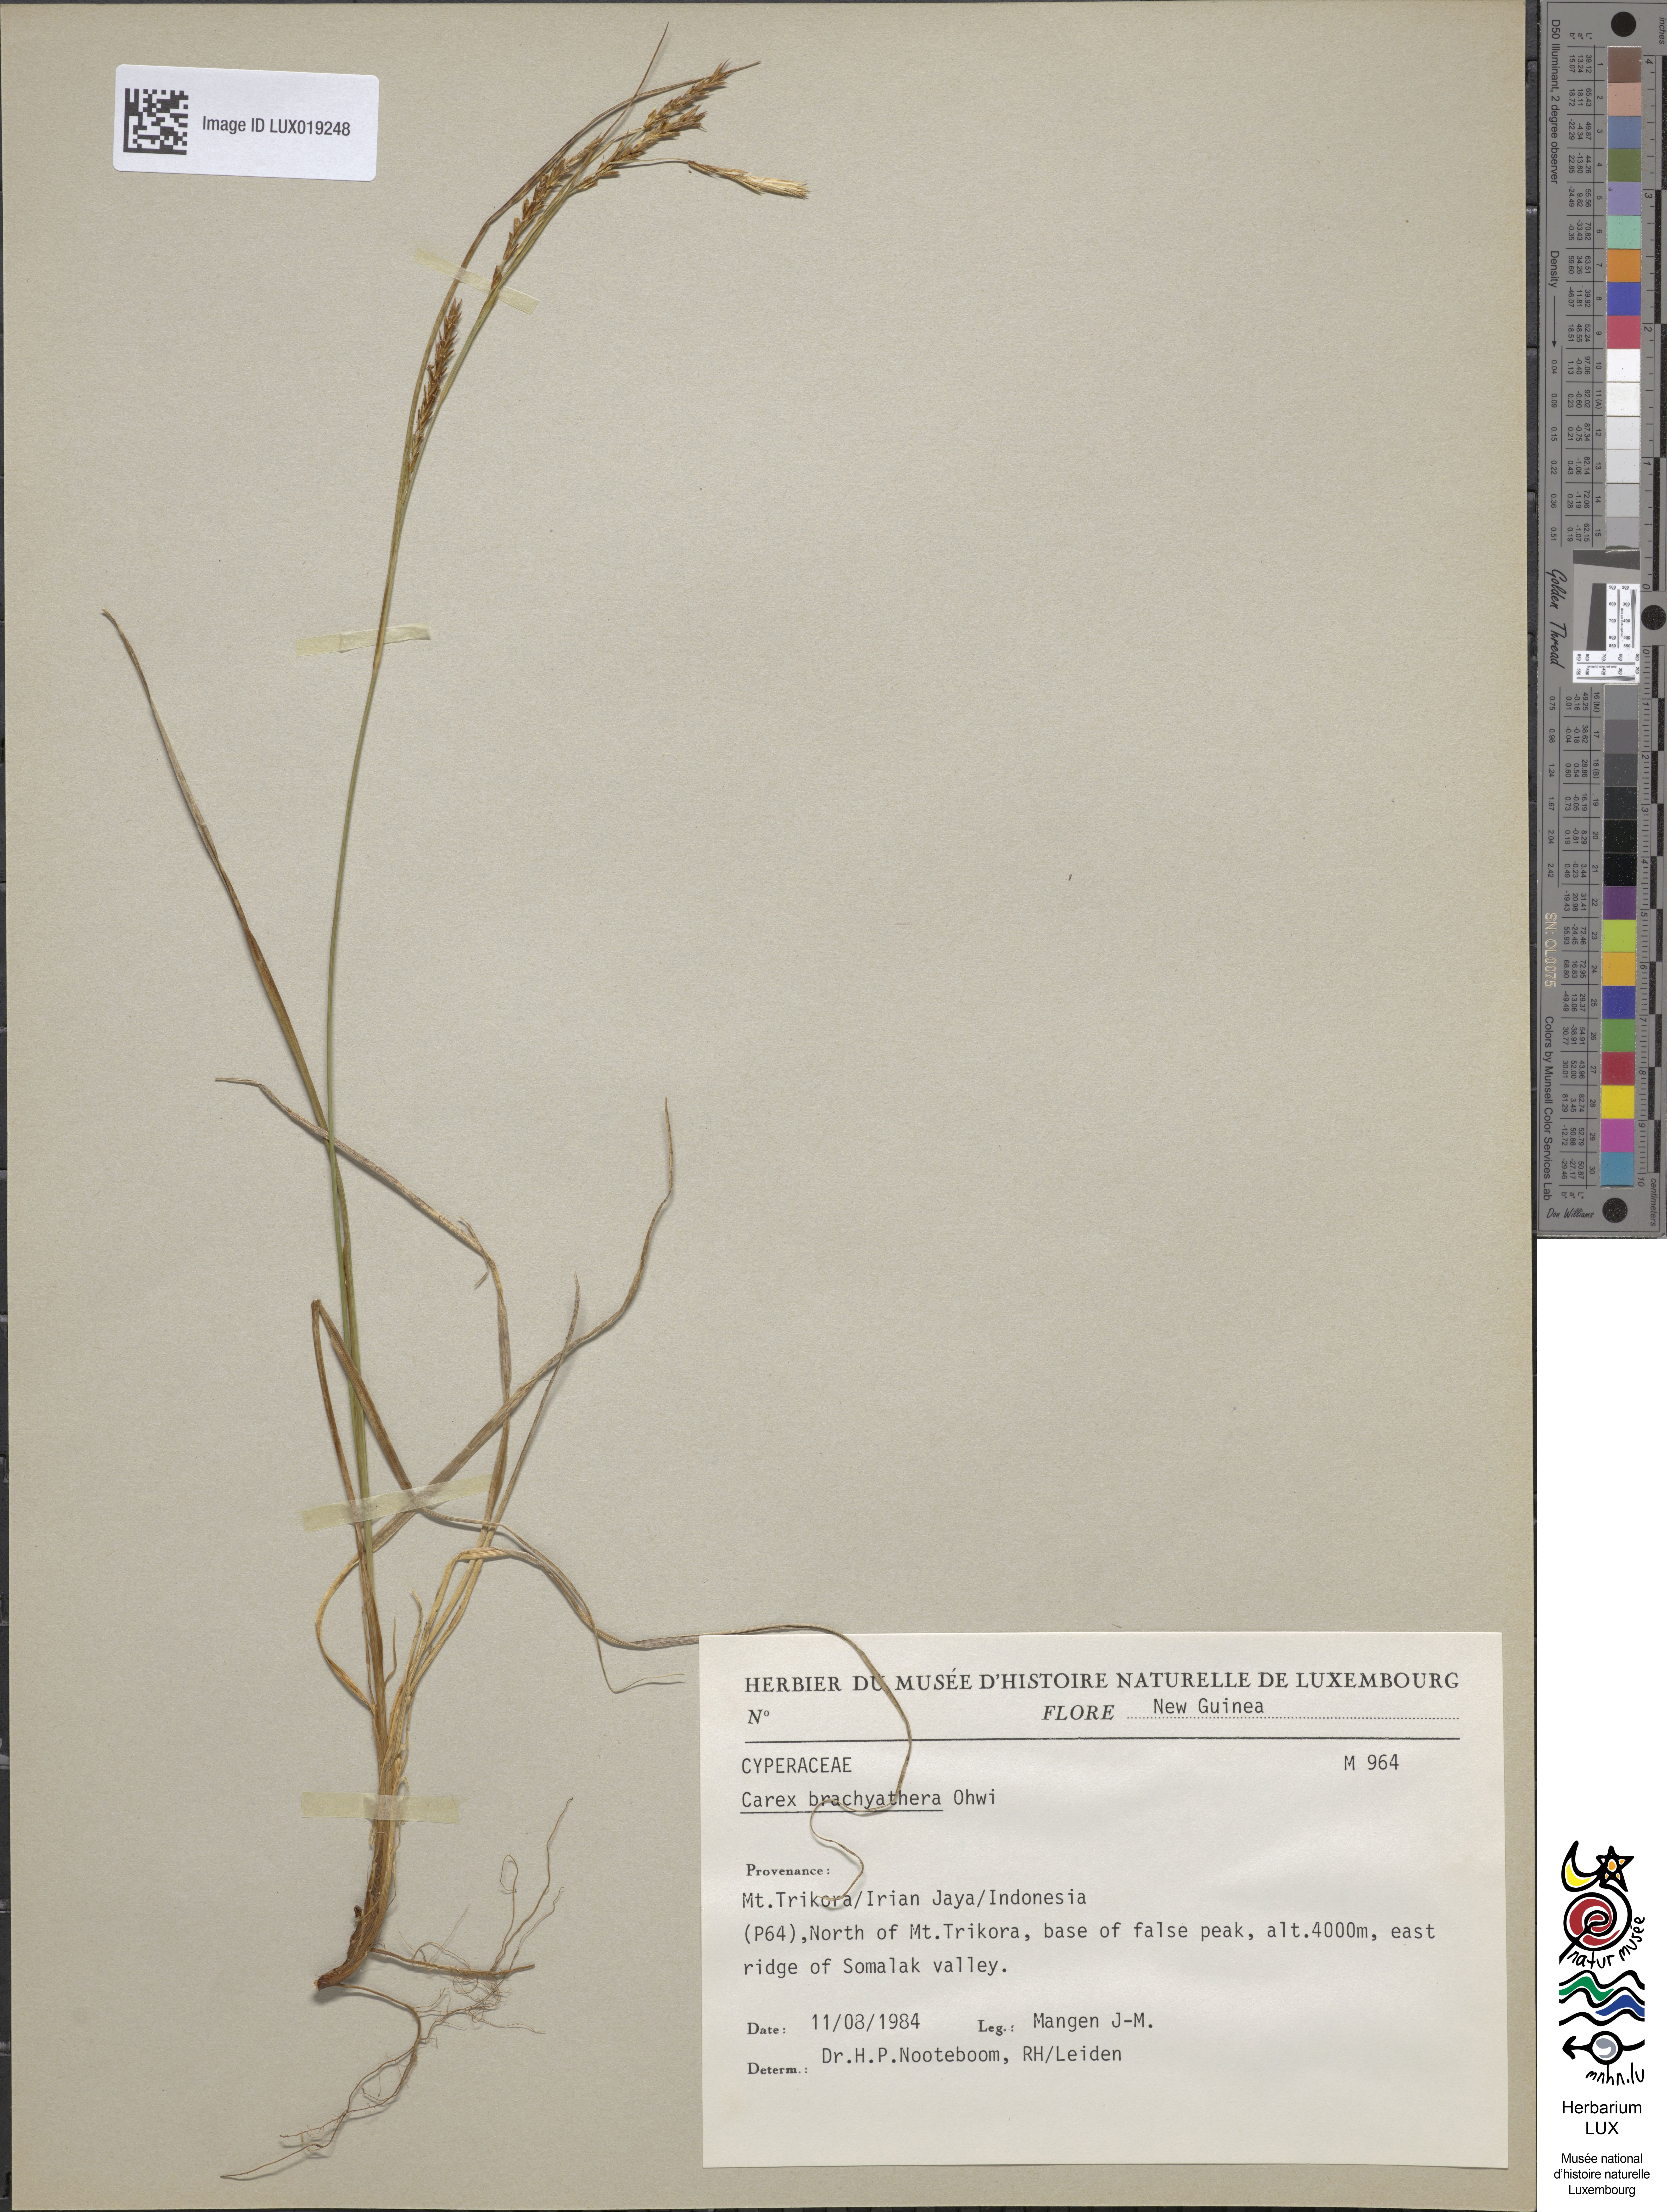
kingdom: Plantae
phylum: Tracheophyta
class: Liliopsida
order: Poales
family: Cyperaceae
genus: Carex
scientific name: Carex brachyanthera
